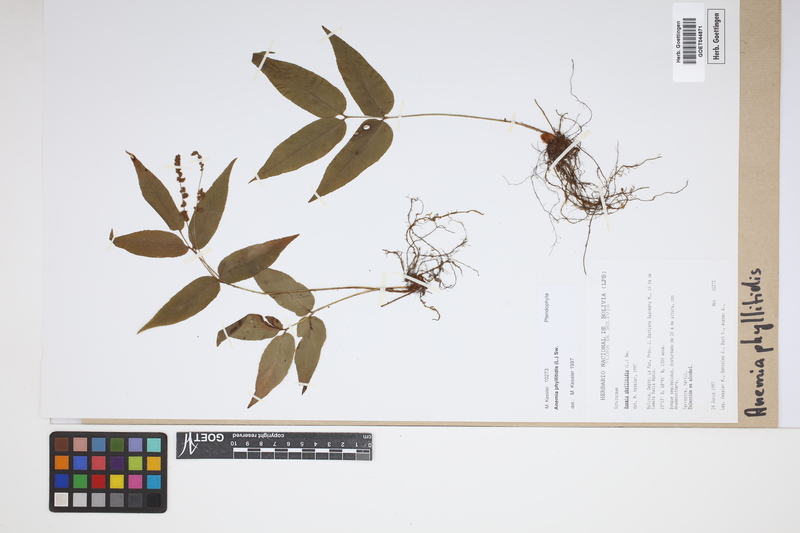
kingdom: Plantae
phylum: Tracheophyta
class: Polypodiopsida
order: Schizaeales
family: Anemiaceae
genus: Anemia
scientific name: Anemia phyllitidis
